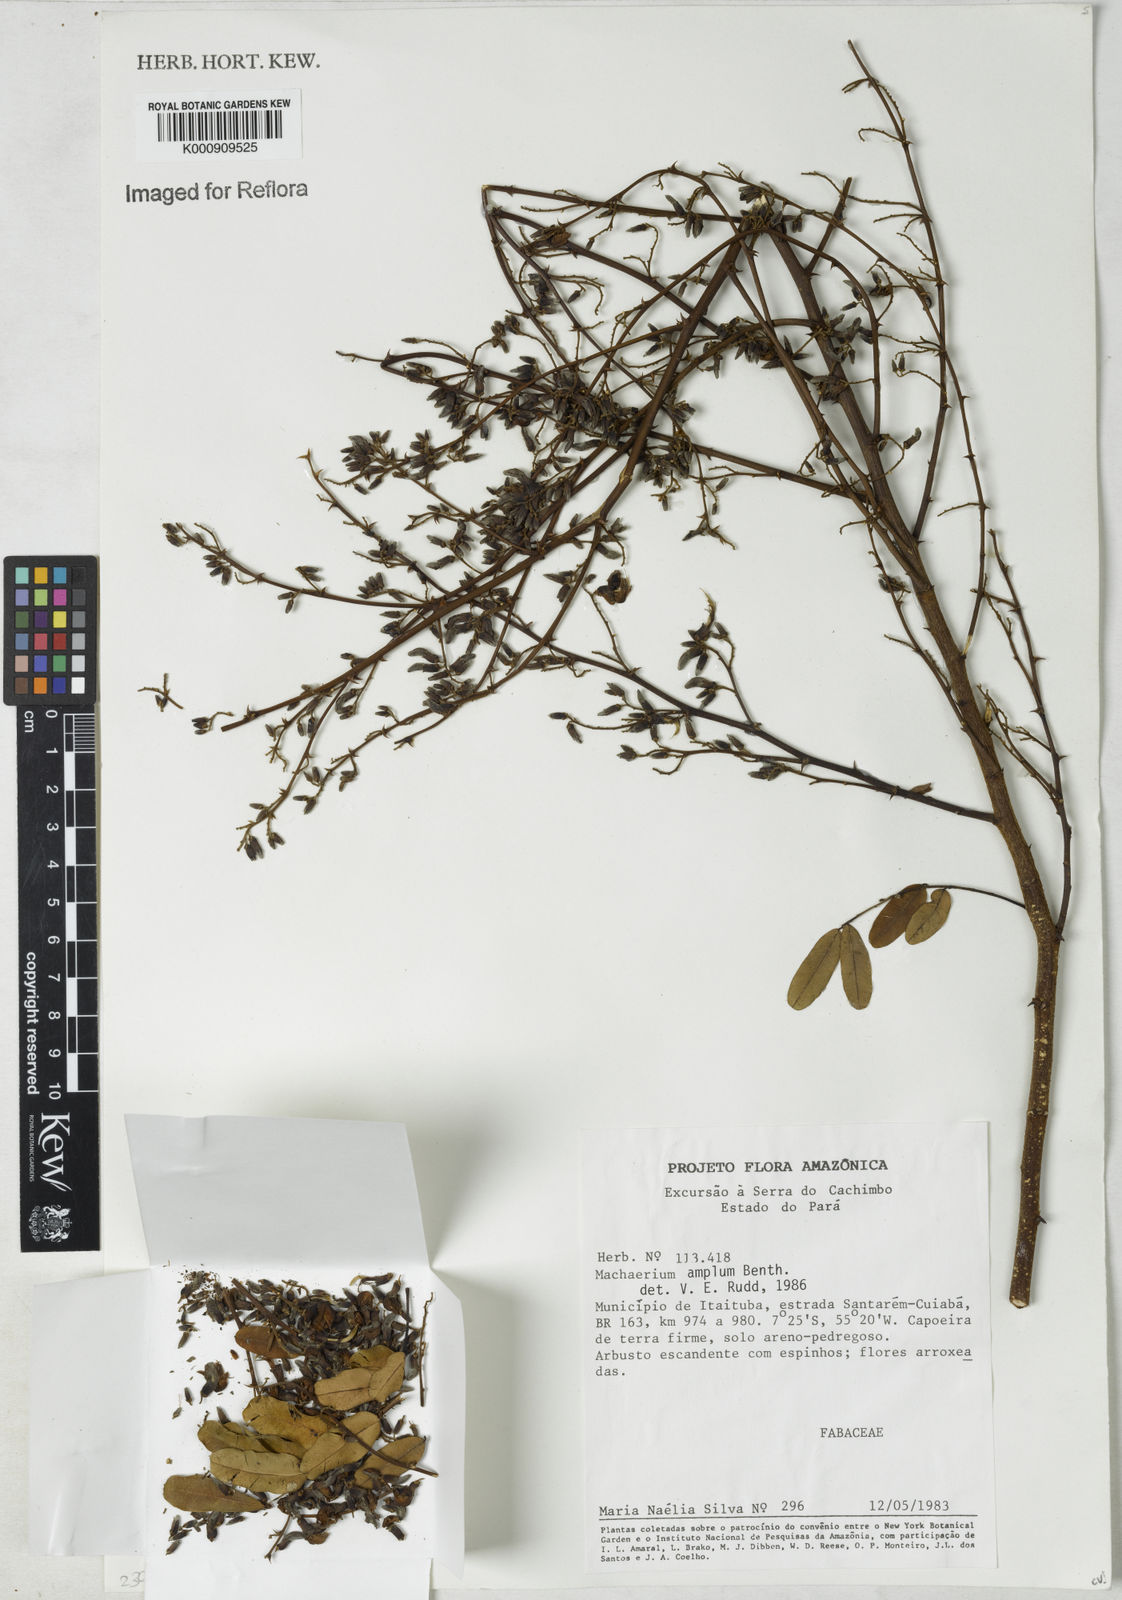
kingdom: Plantae
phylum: Tracheophyta
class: Magnoliopsida
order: Fabales
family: Fabaceae
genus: Machaerium
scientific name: Machaerium amplum
